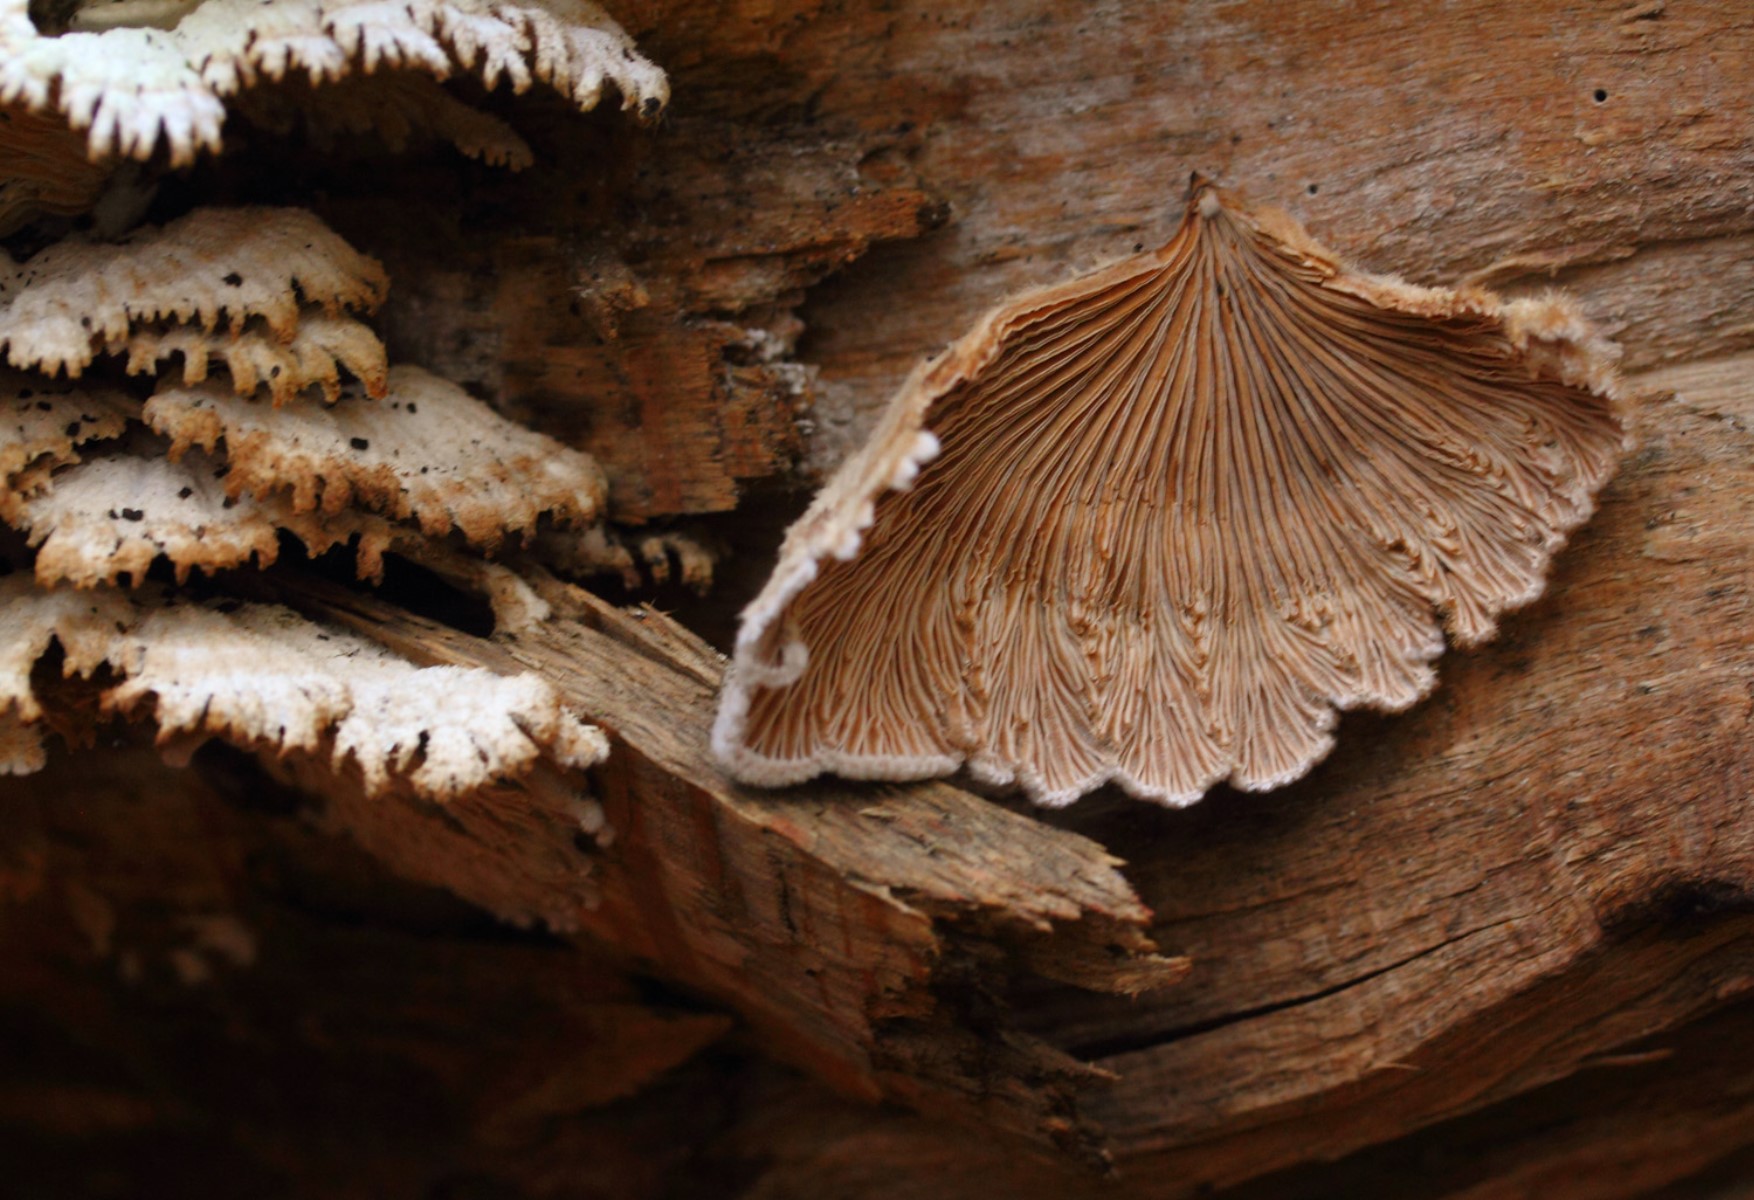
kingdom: Fungi
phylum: Basidiomycota
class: Agaricomycetes
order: Agaricales
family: Schizophyllaceae
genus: Schizophyllum
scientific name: Schizophyllum commune
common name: kløvblad
